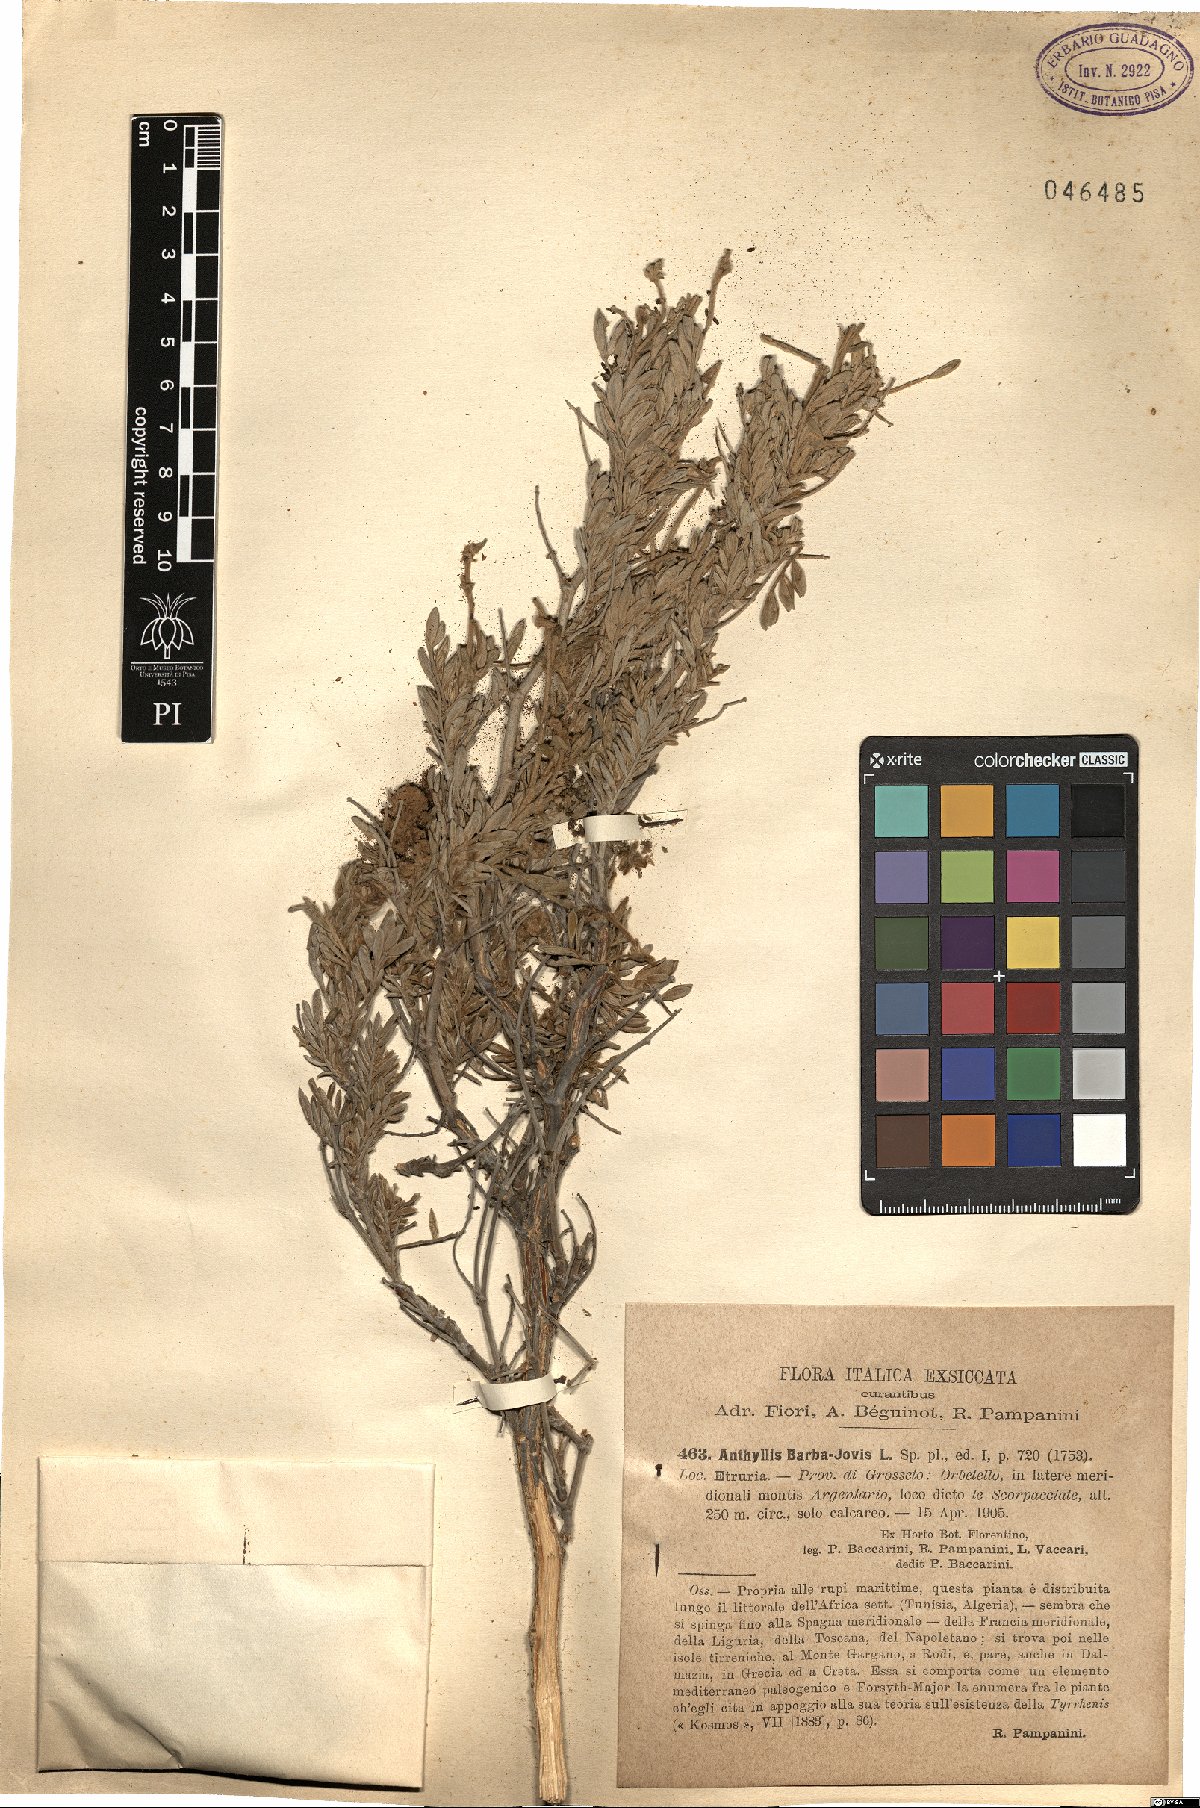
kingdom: Plantae
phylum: Tracheophyta
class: Magnoliopsida
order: Fabales
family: Fabaceae
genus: Anthyllis
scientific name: Anthyllis barba-jovis
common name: Jupiter's-beard
